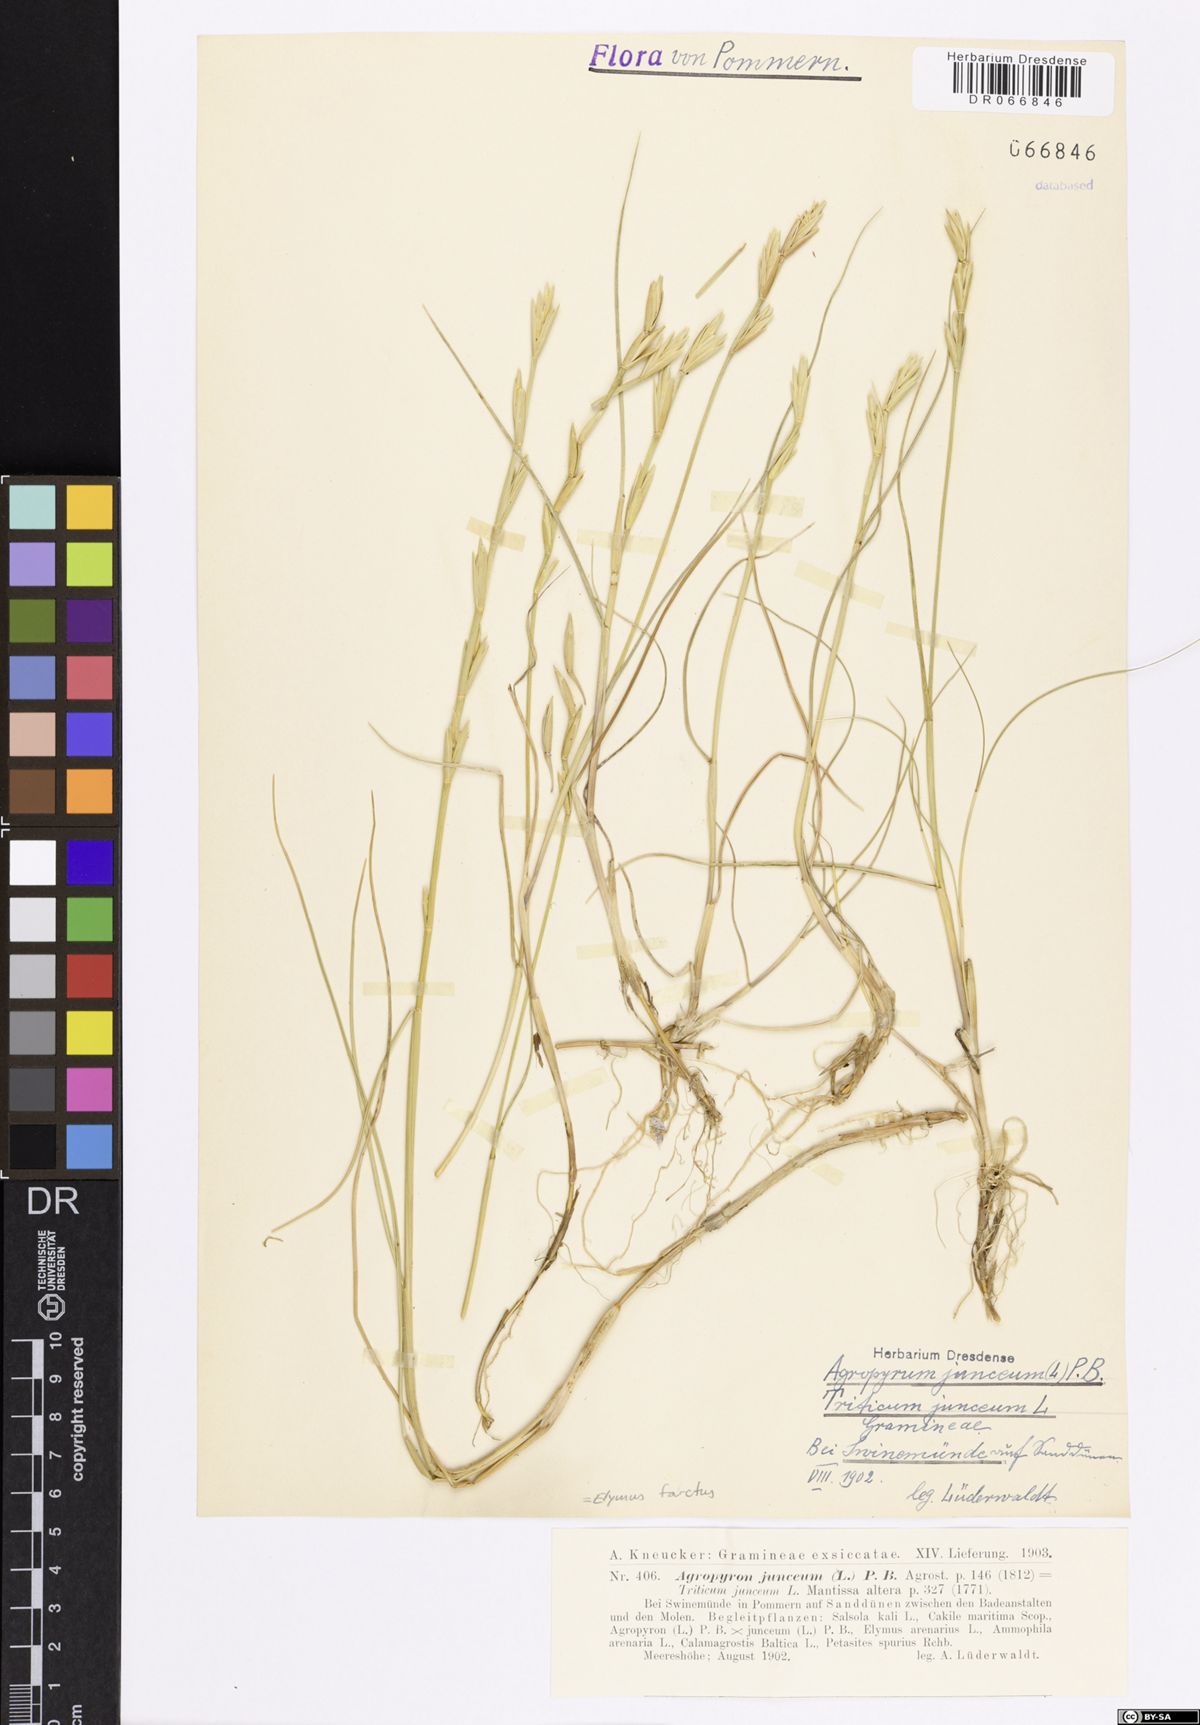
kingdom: Plantae
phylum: Tracheophyta
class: Liliopsida
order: Poales
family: Poaceae
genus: Thinopyrum
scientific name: Thinopyrum junceum
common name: Russian wheatgrass
